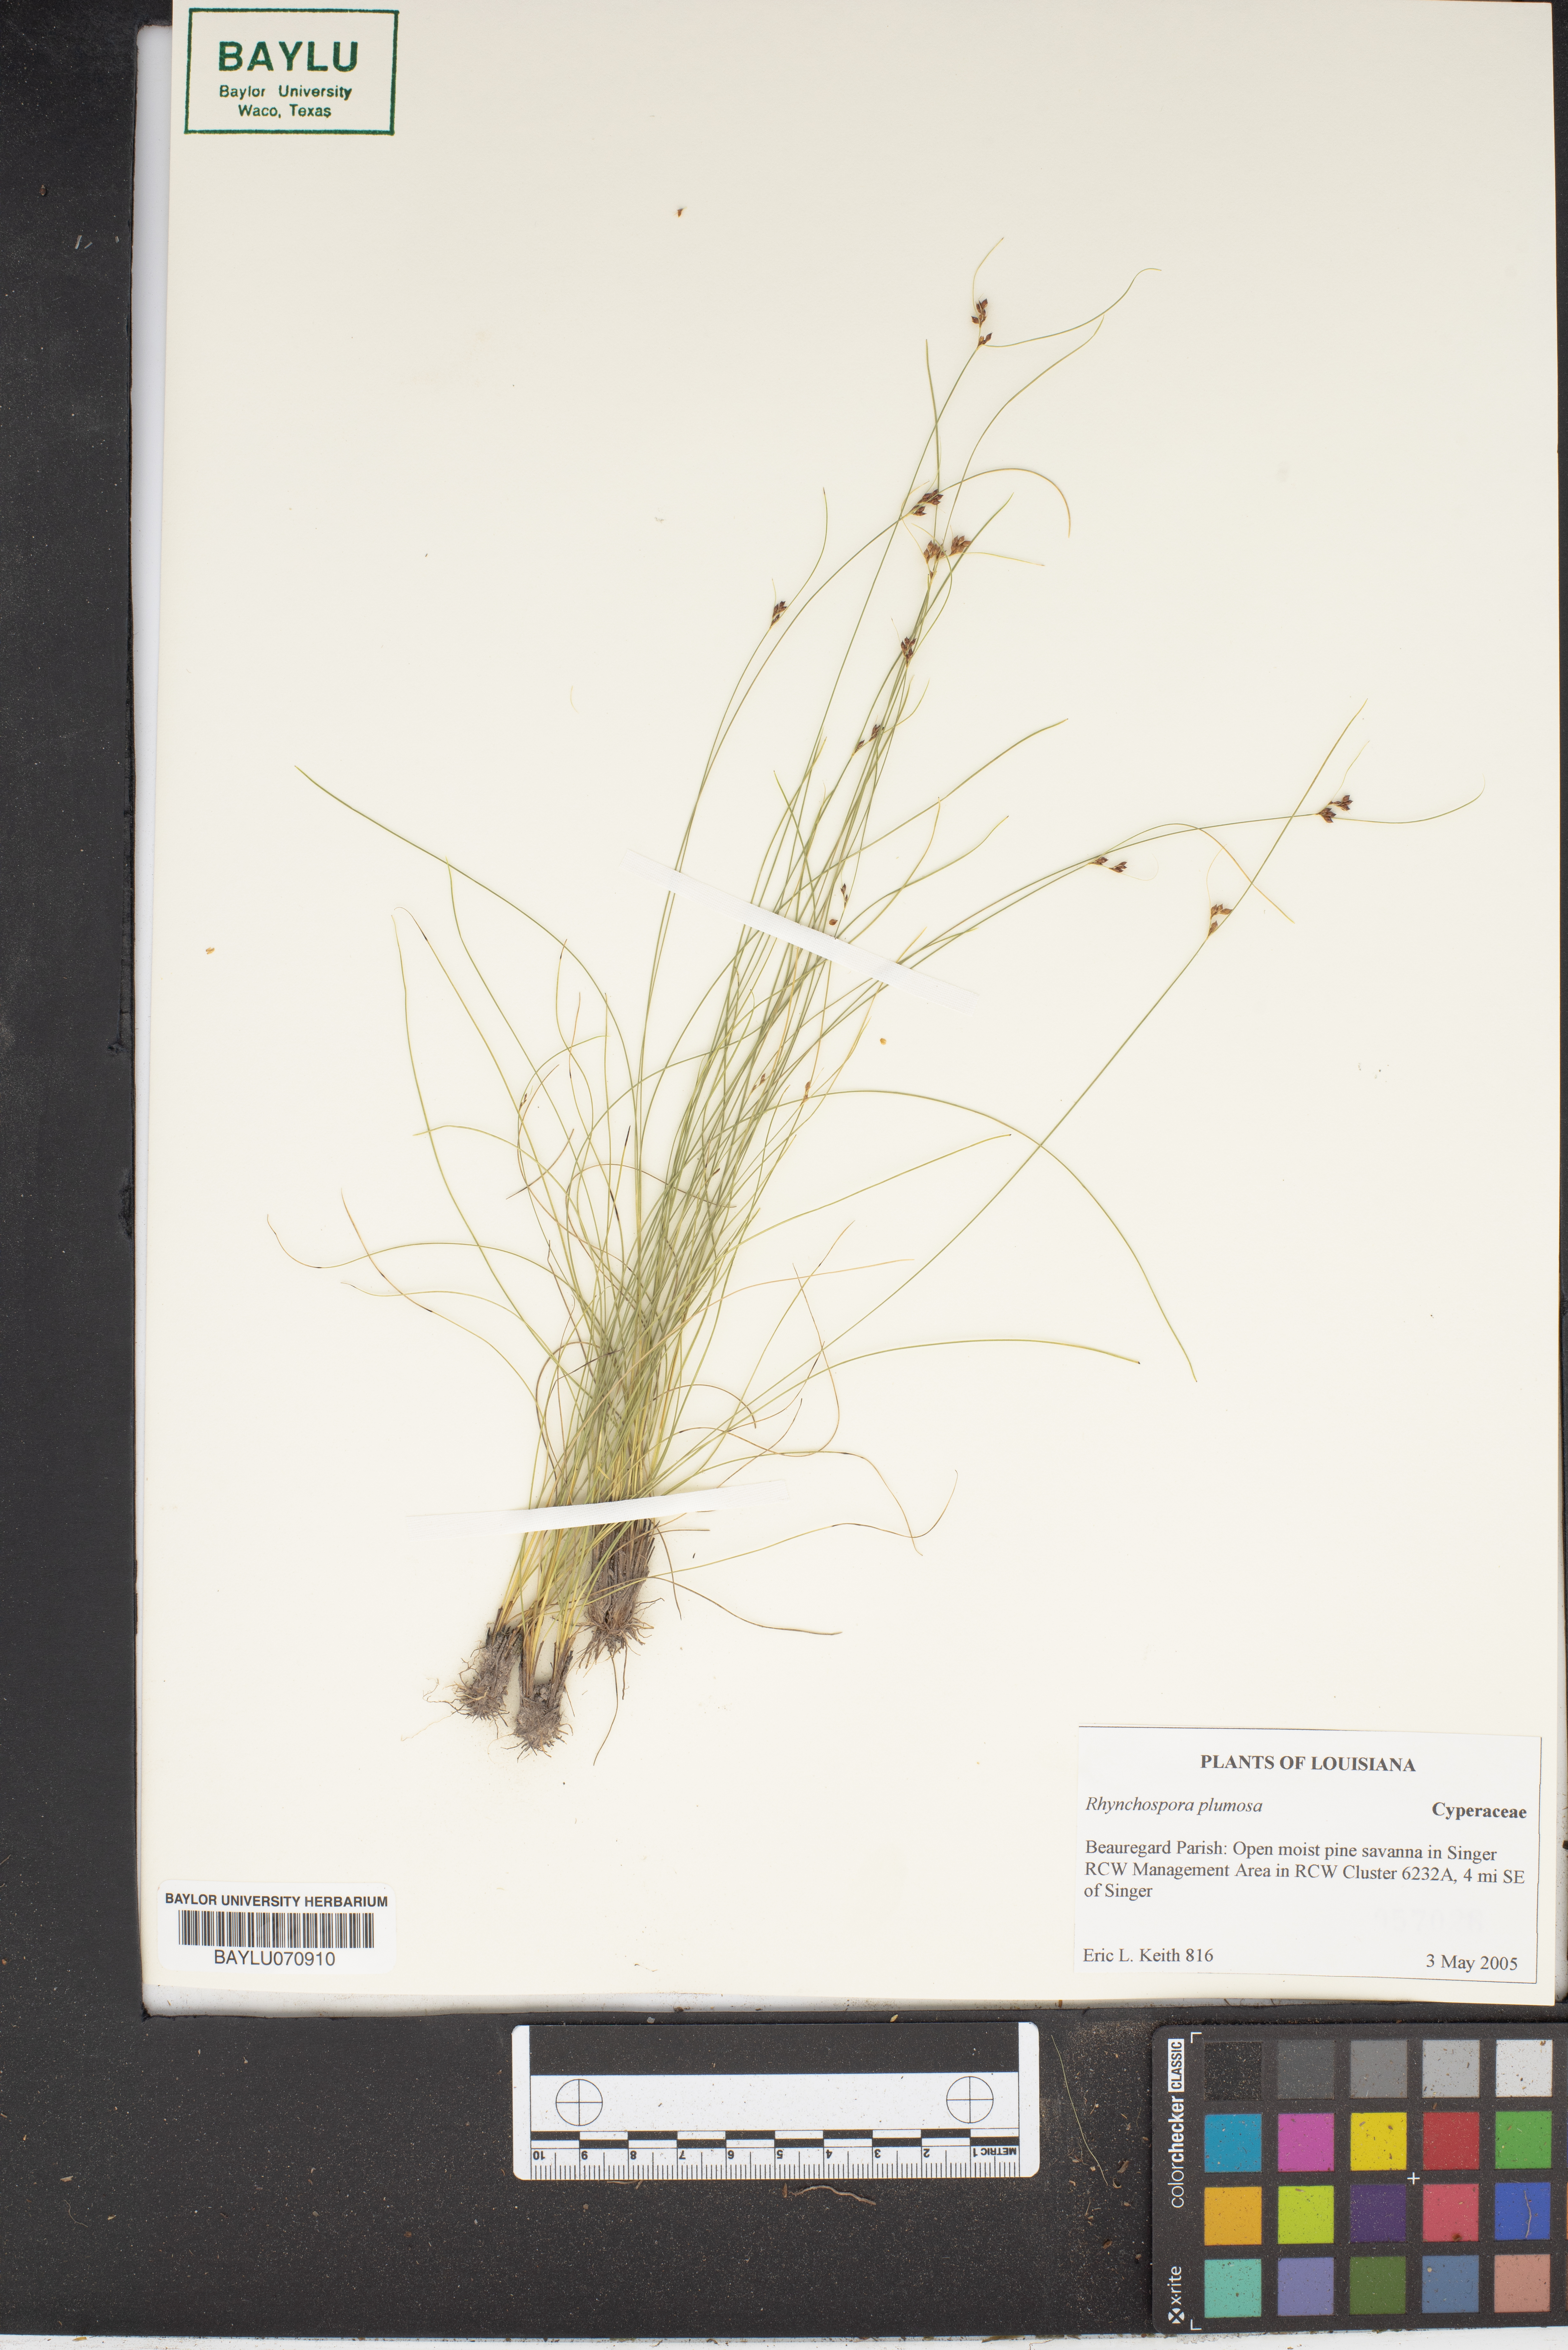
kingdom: Plantae
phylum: Tracheophyta
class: Liliopsida
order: Poales
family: Cyperaceae
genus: Rhynchospora
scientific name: Rhynchospora plumosa
